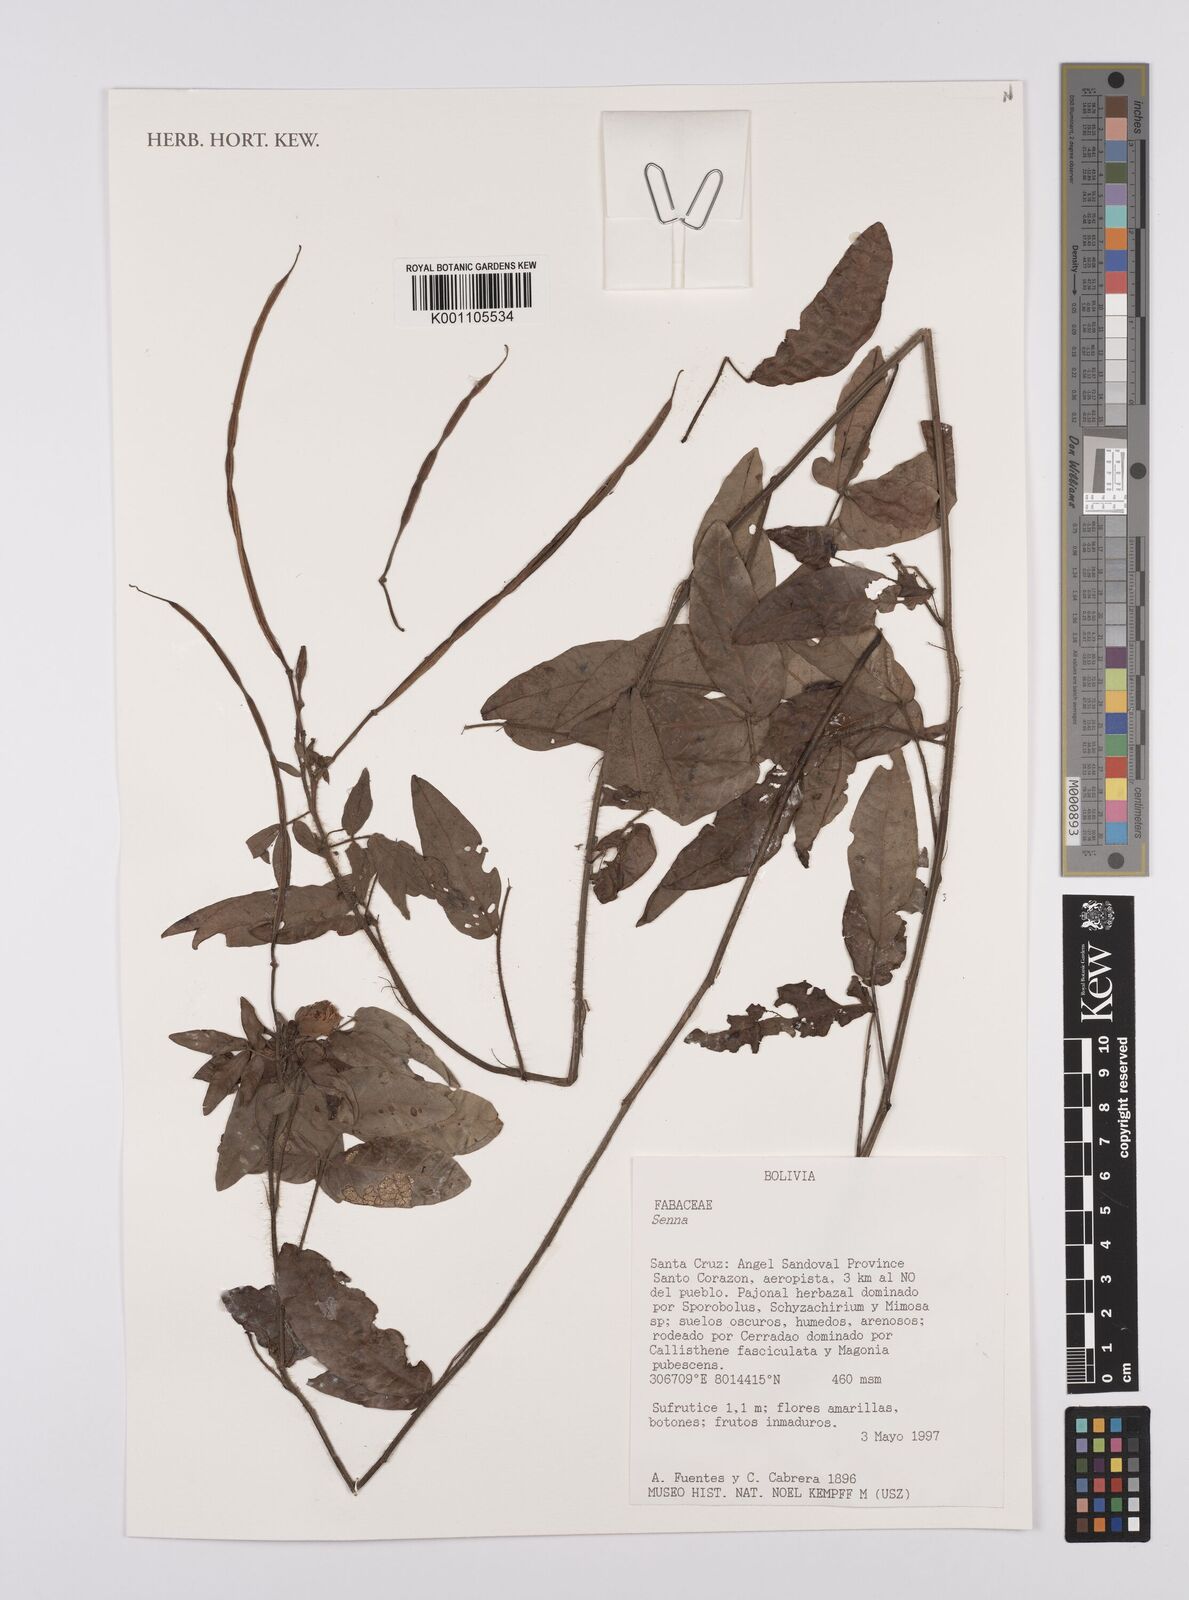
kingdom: Plantae
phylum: Tracheophyta
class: Magnoliopsida
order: Fabales
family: Fabaceae
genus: Senna
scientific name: Senna
